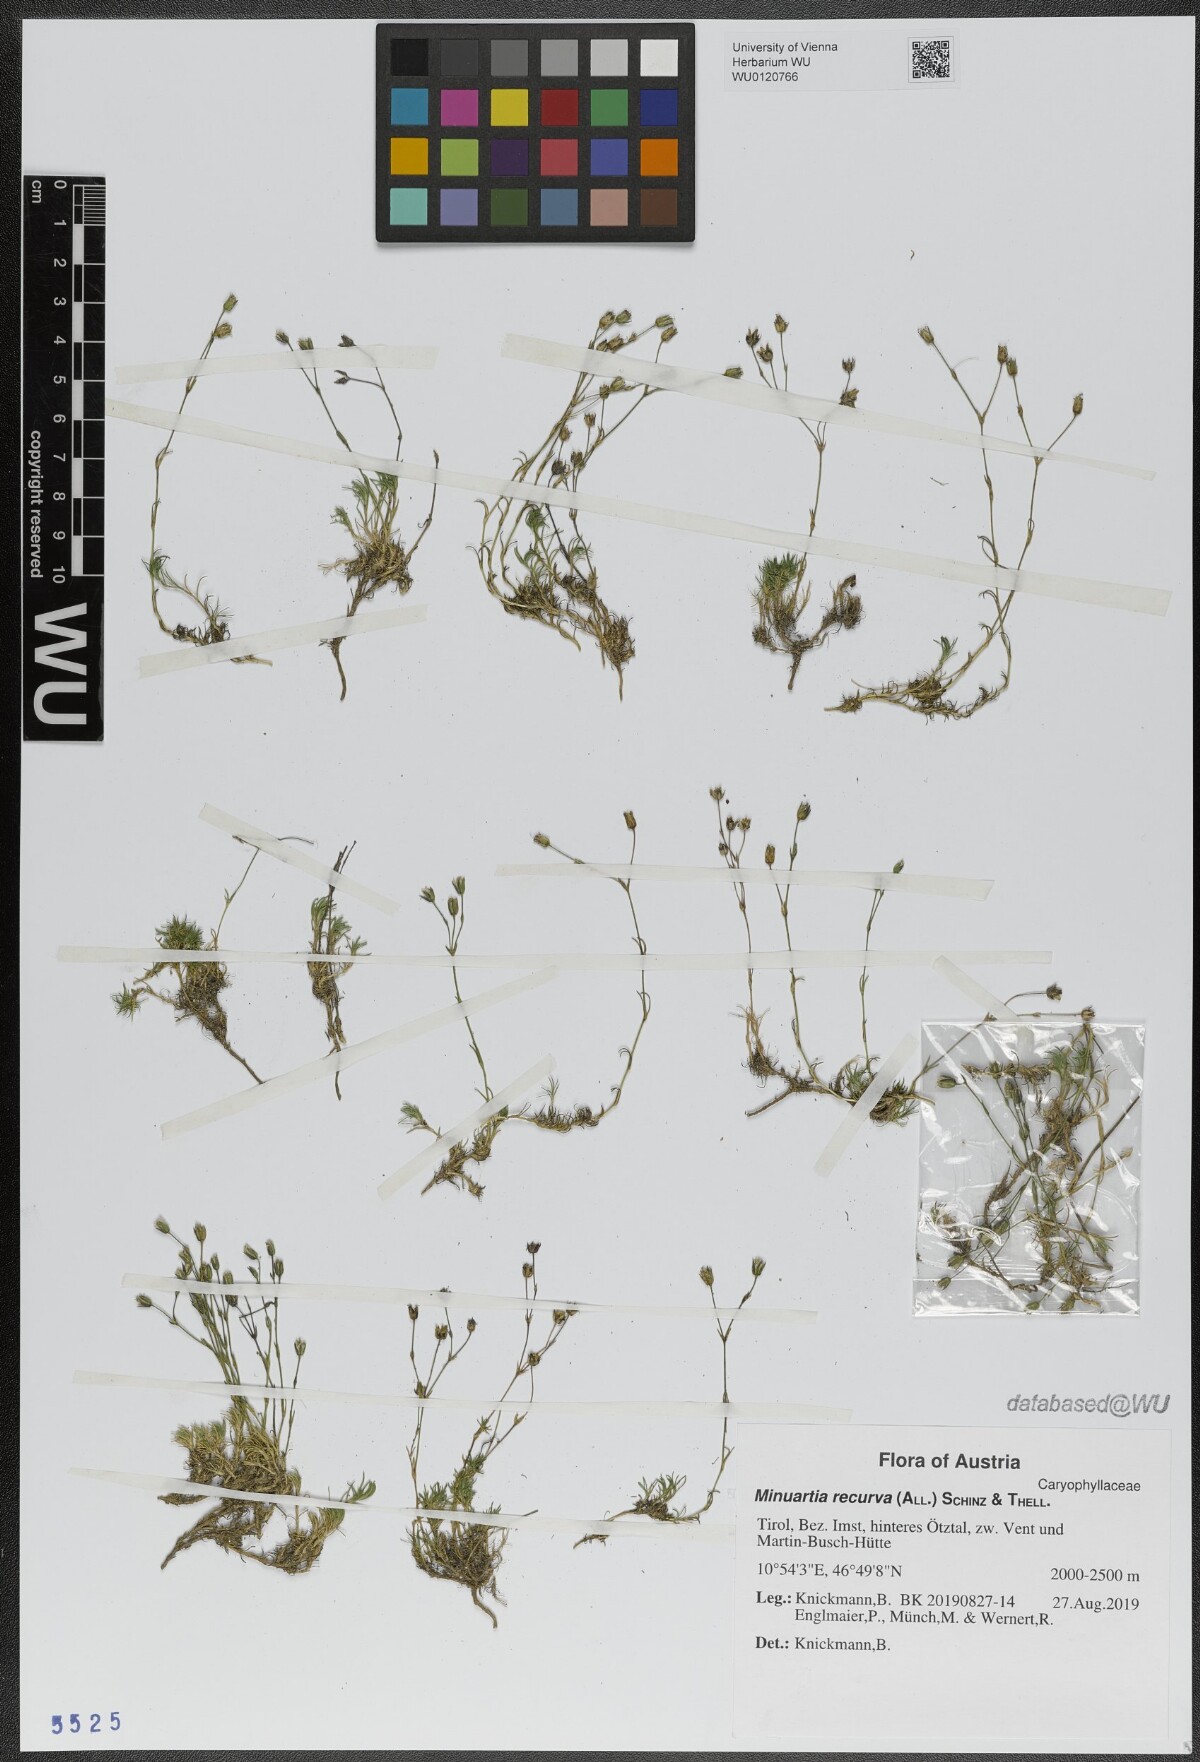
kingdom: Plantae
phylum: Tracheophyta
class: Magnoliopsida
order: Caryophyllales
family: Caryophyllaceae
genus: Minuartia
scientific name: Minuartia recurva
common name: Recurved sandwort
